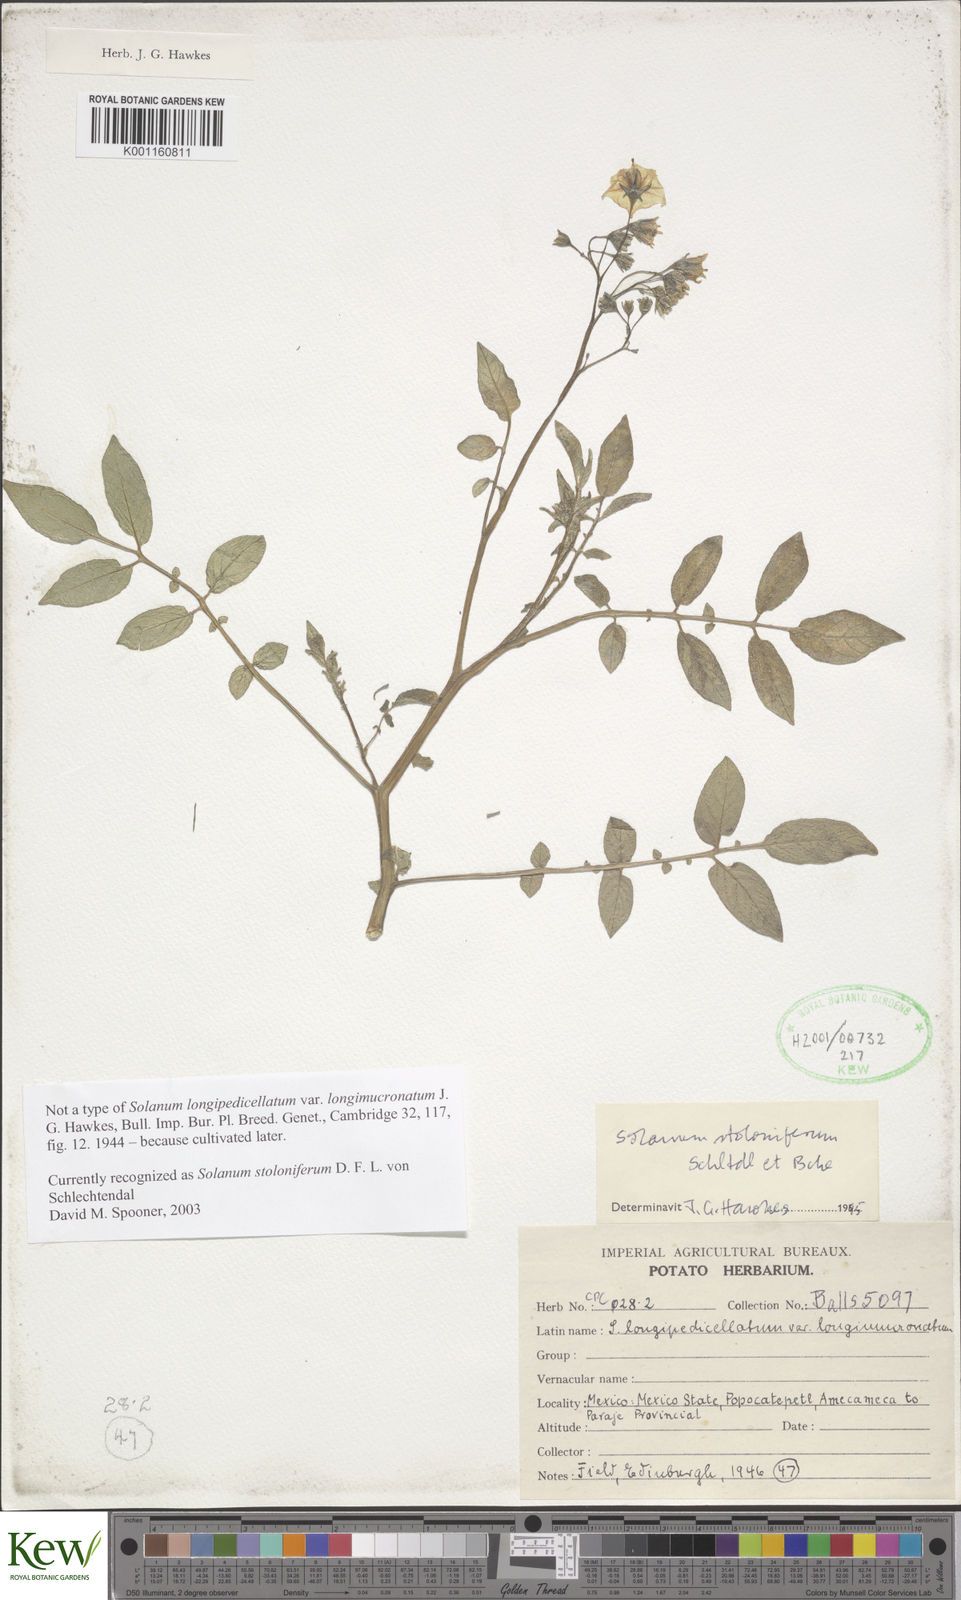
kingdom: Plantae
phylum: Tracheophyta
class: Magnoliopsida
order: Solanales
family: Solanaceae
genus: Solanum
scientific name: Solanum stoloniferum
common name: Fendler's nighshade
